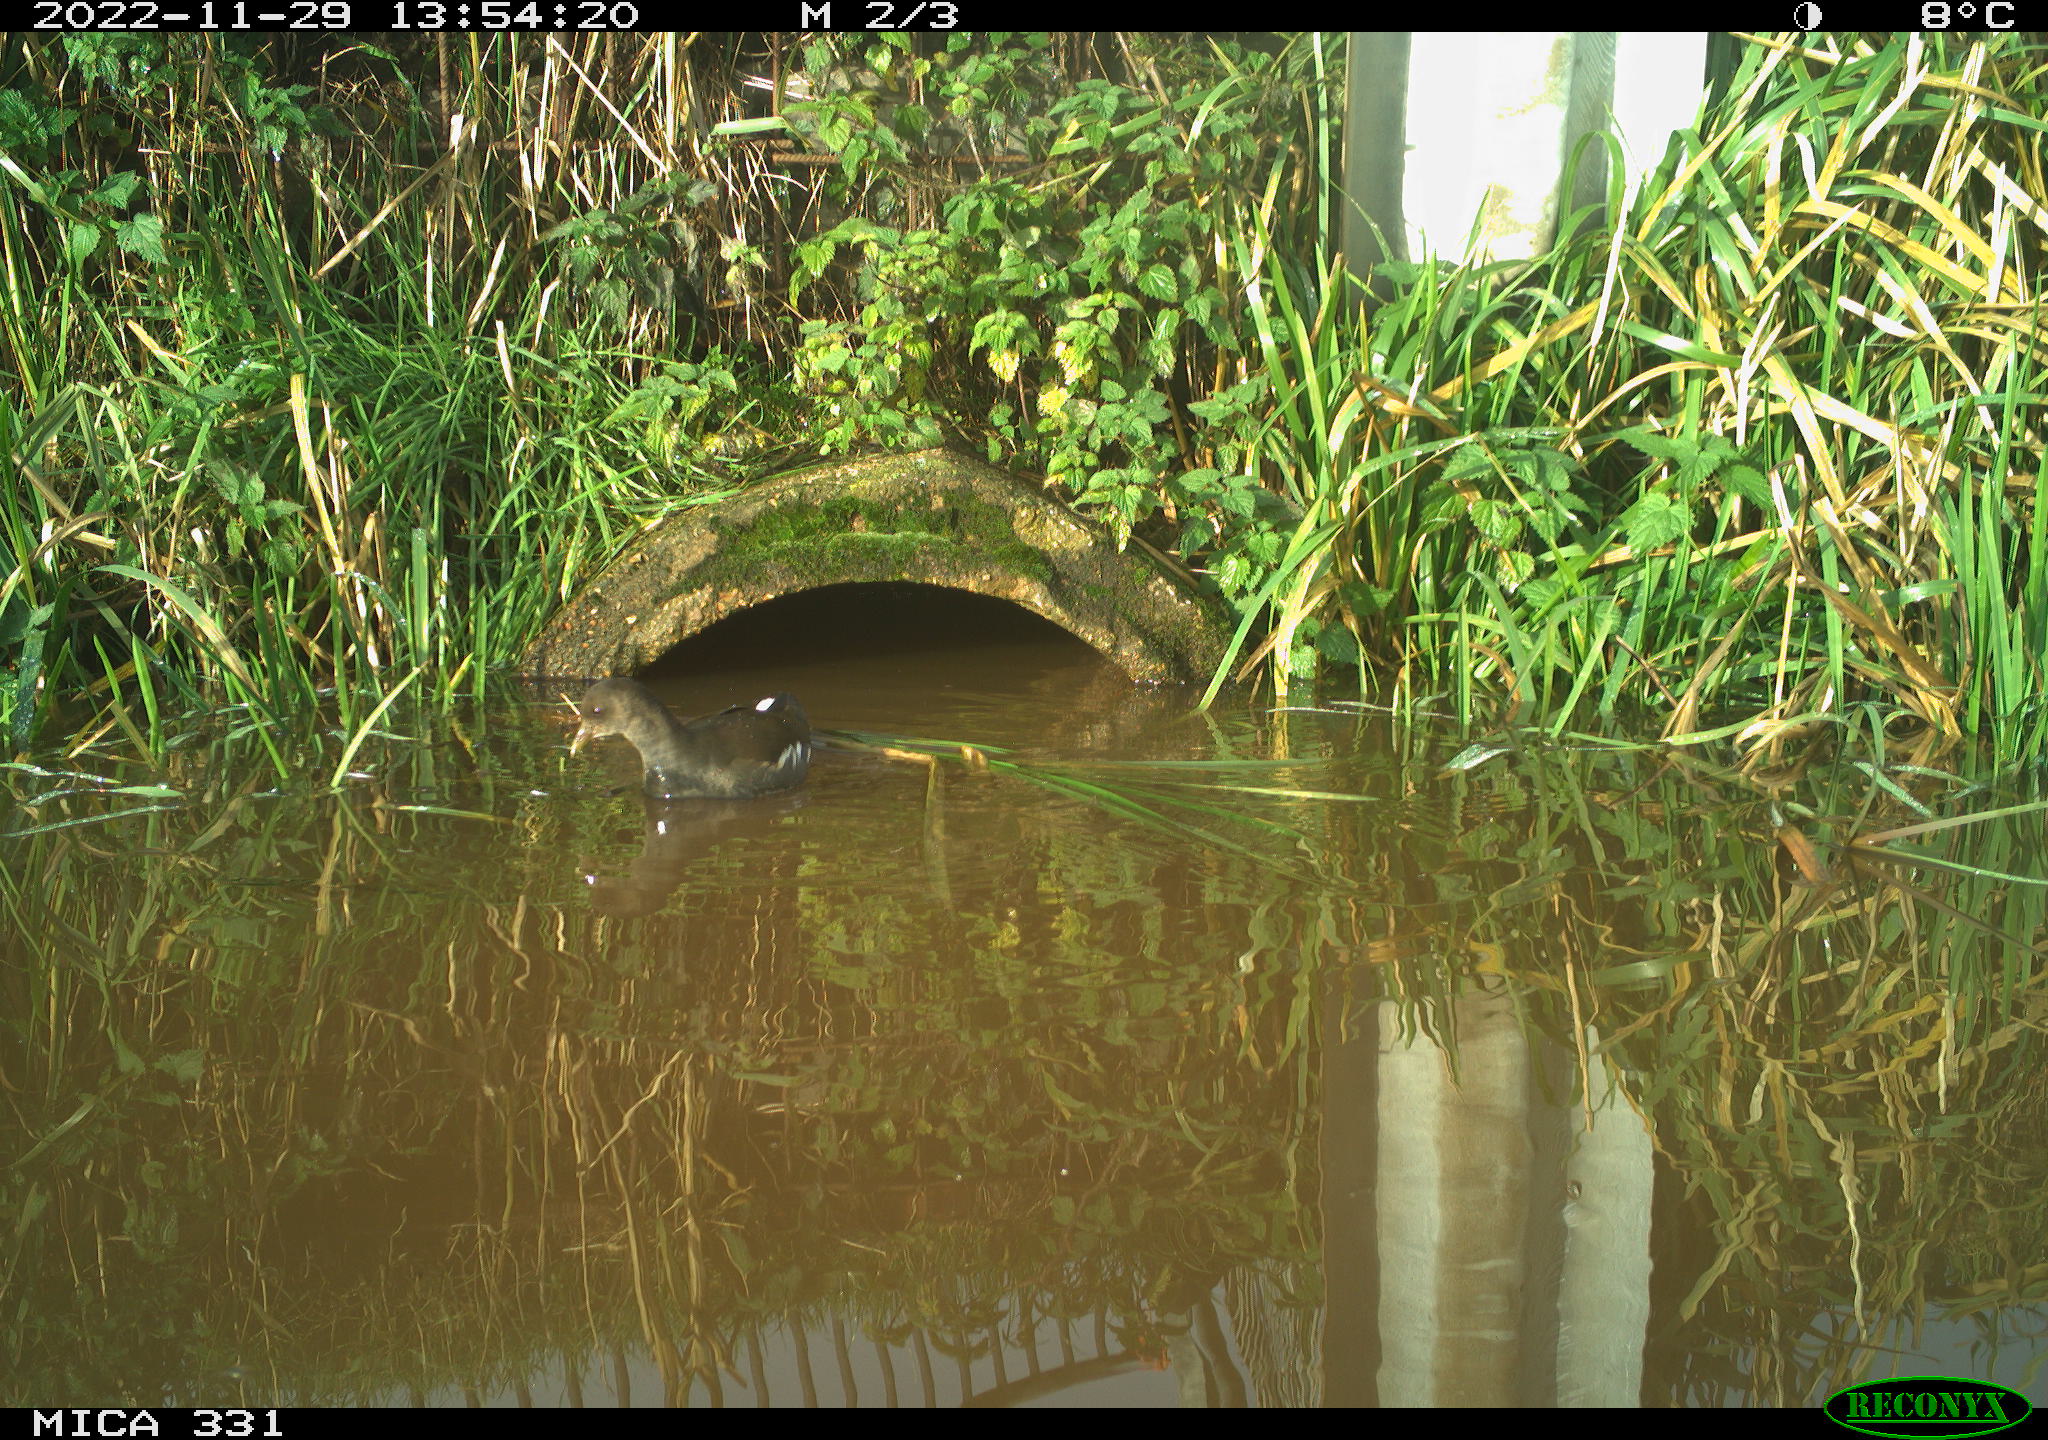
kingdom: Animalia
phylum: Chordata
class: Aves
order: Gruiformes
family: Rallidae
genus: Gallinula
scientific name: Gallinula chloropus
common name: Common moorhen
